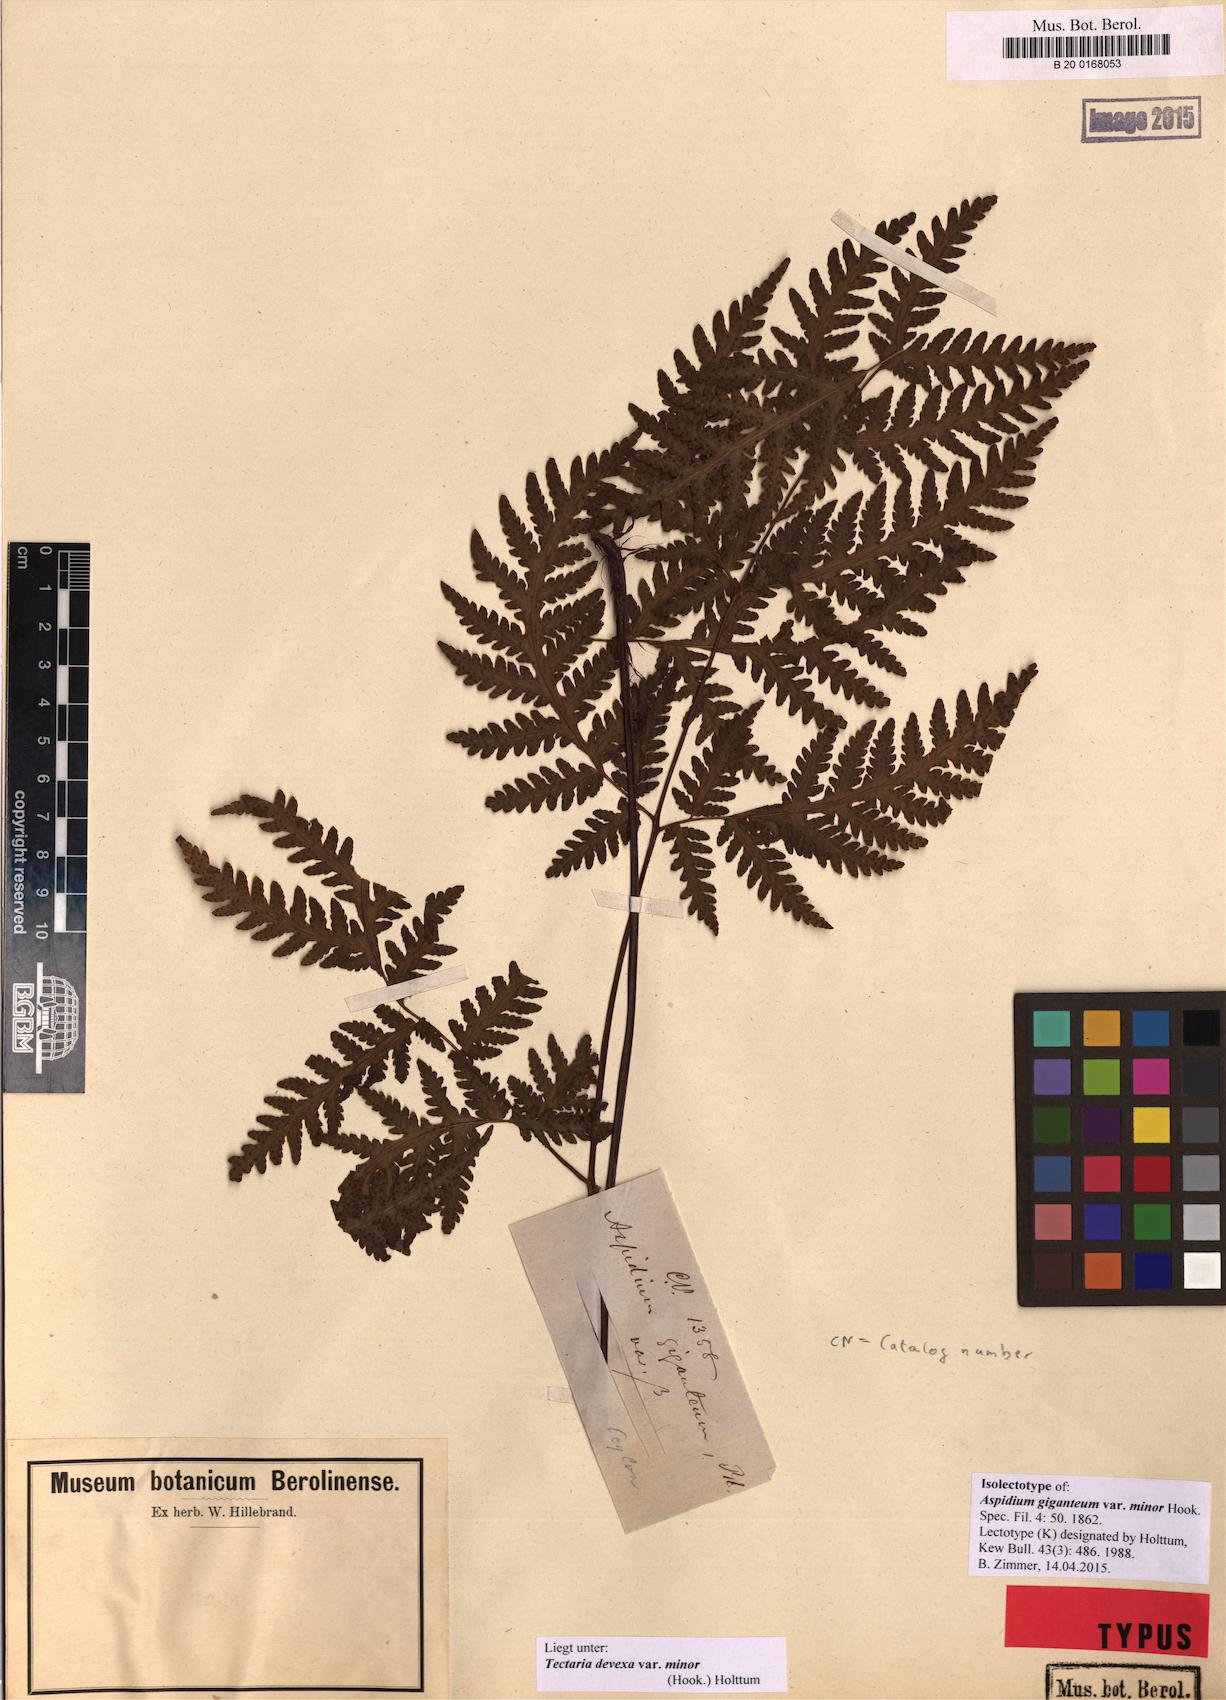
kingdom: Plantae
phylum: Tracheophyta
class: Polypodiopsida
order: Polypodiales
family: Tectariaceae
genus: Tectaria
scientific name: Tectaria membranacea
